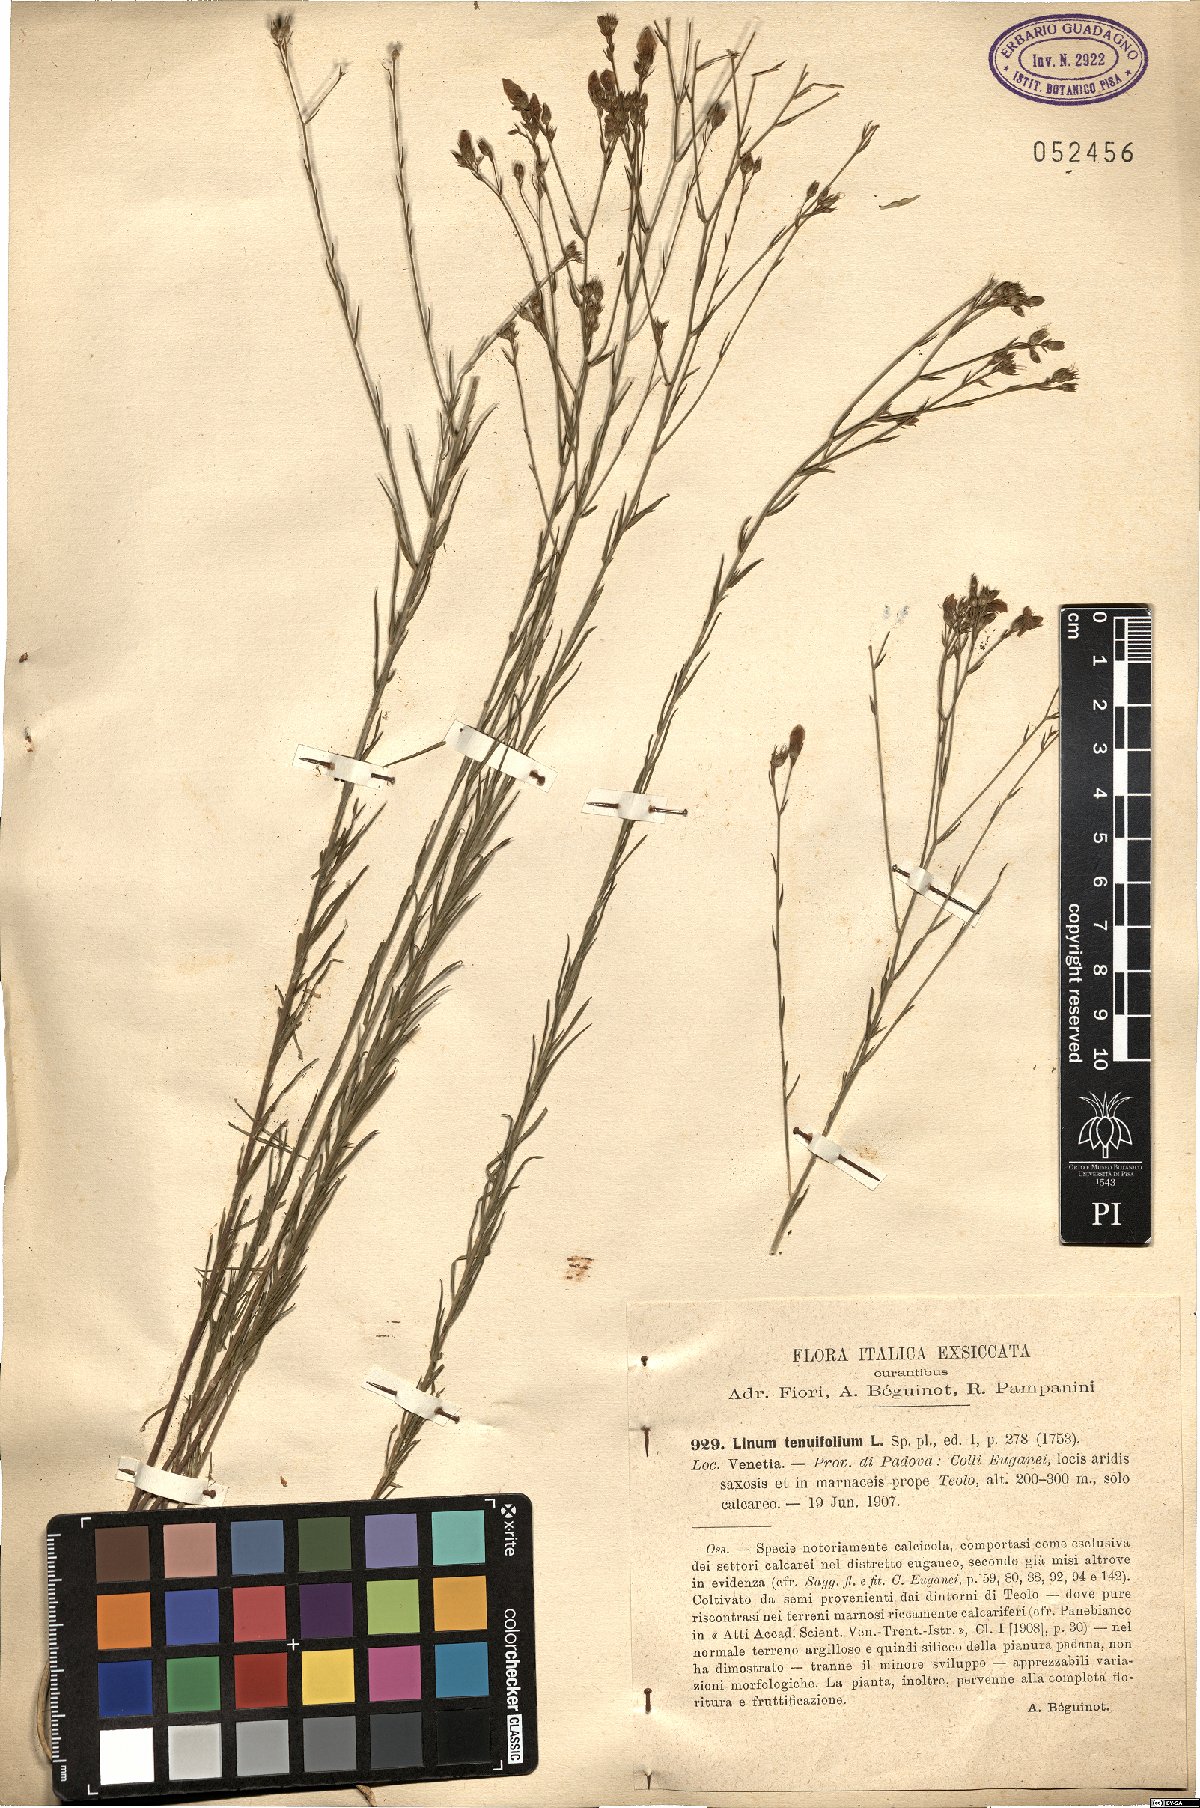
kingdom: Plantae
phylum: Tracheophyta
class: Magnoliopsida
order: Malpighiales
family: Linaceae
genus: Linum
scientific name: Linum tenuifolium
